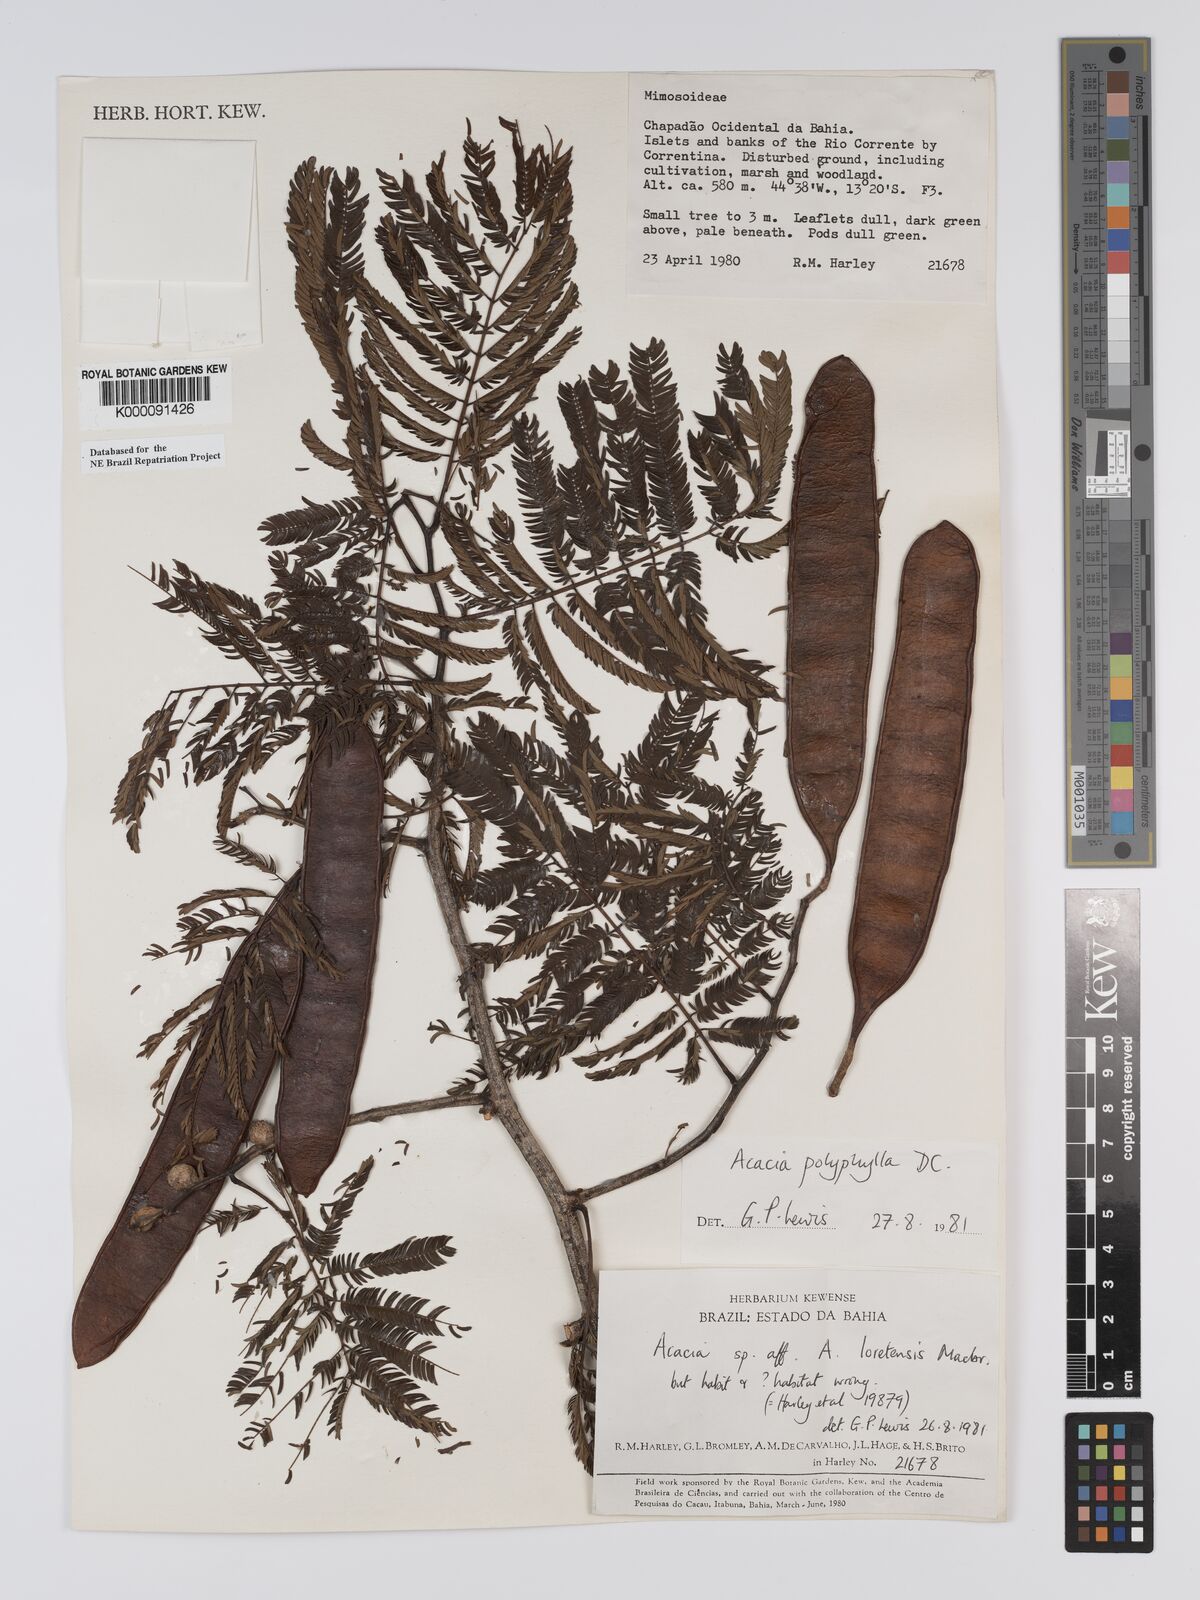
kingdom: Plantae
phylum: Tracheophyta
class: Magnoliopsida
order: Fabales
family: Fabaceae
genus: Senegalia
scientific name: Senegalia polyphylla
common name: White-tamarind
